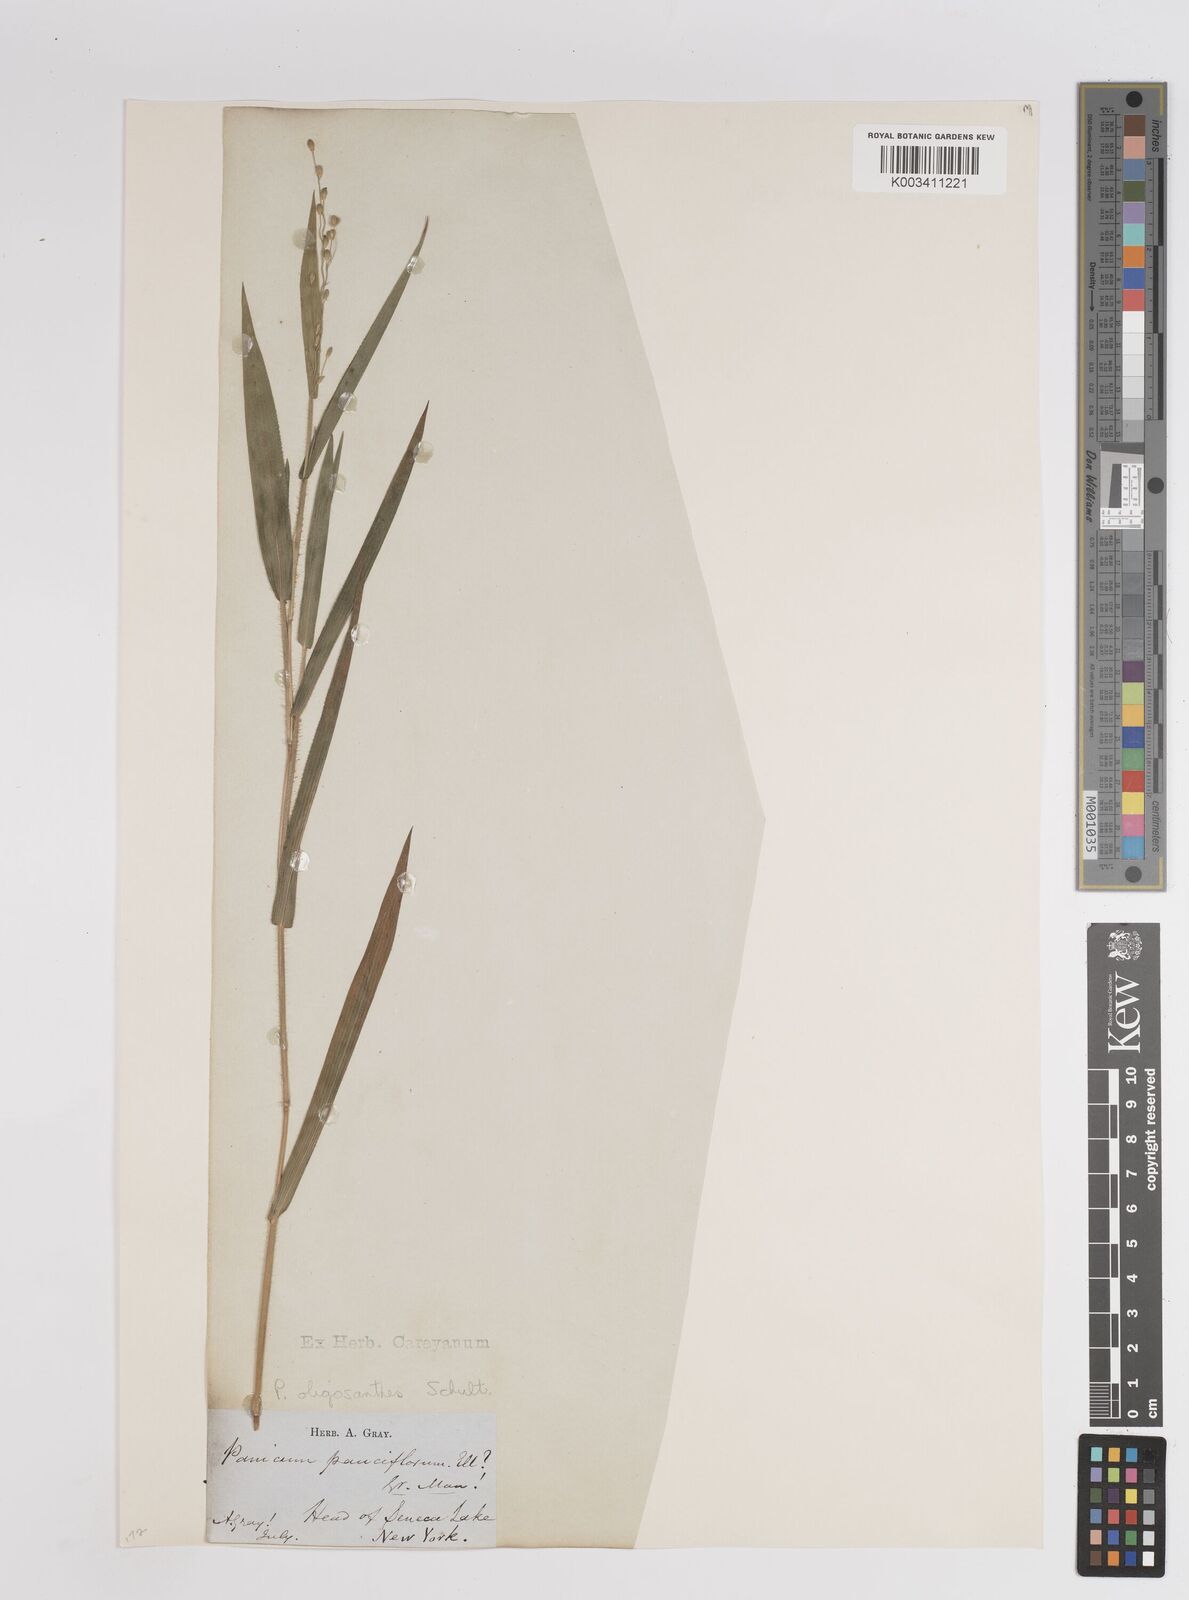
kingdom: Plantae
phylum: Tracheophyta
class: Liliopsida
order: Poales
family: Poaceae
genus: Dichanthelium
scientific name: Dichanthelium oligosanthes
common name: Few-anther obscuregrass
